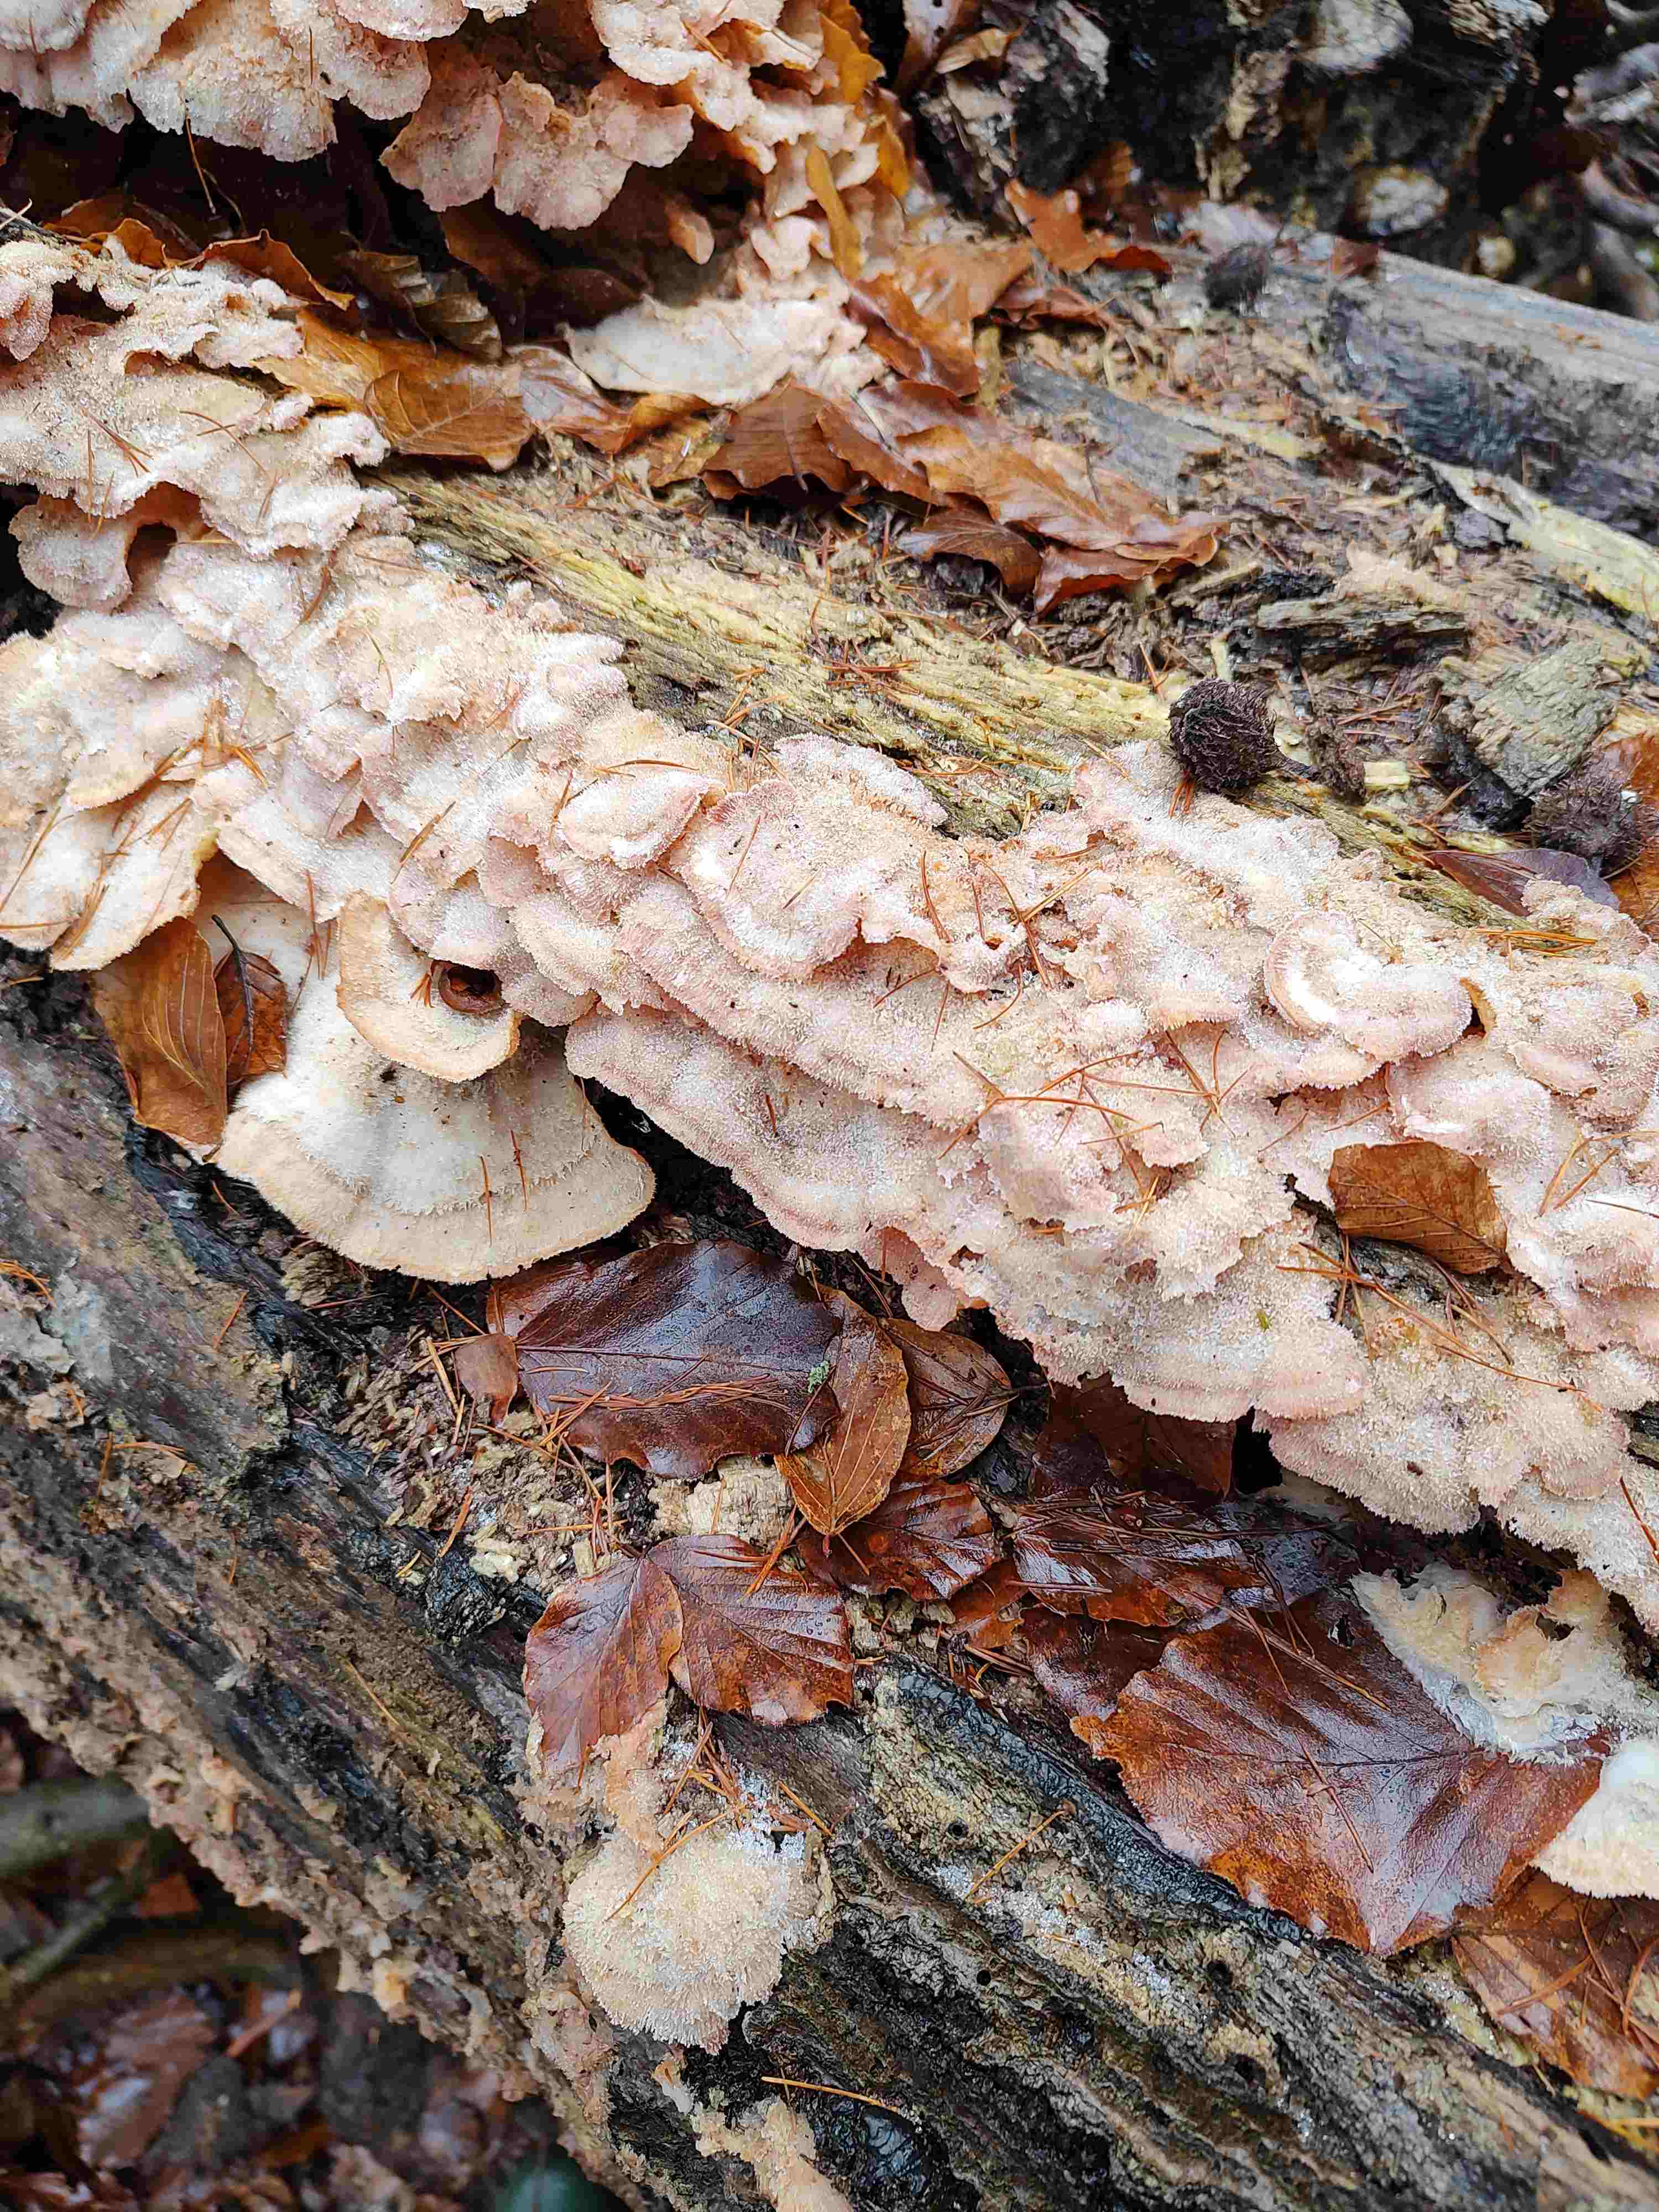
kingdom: Fungi
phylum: Basidiomycota
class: Agaricomycetes
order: Polyporales
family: Meruliaceae
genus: Phlebia
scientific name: Phlebia tremellosa
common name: bævrende åresvamp
